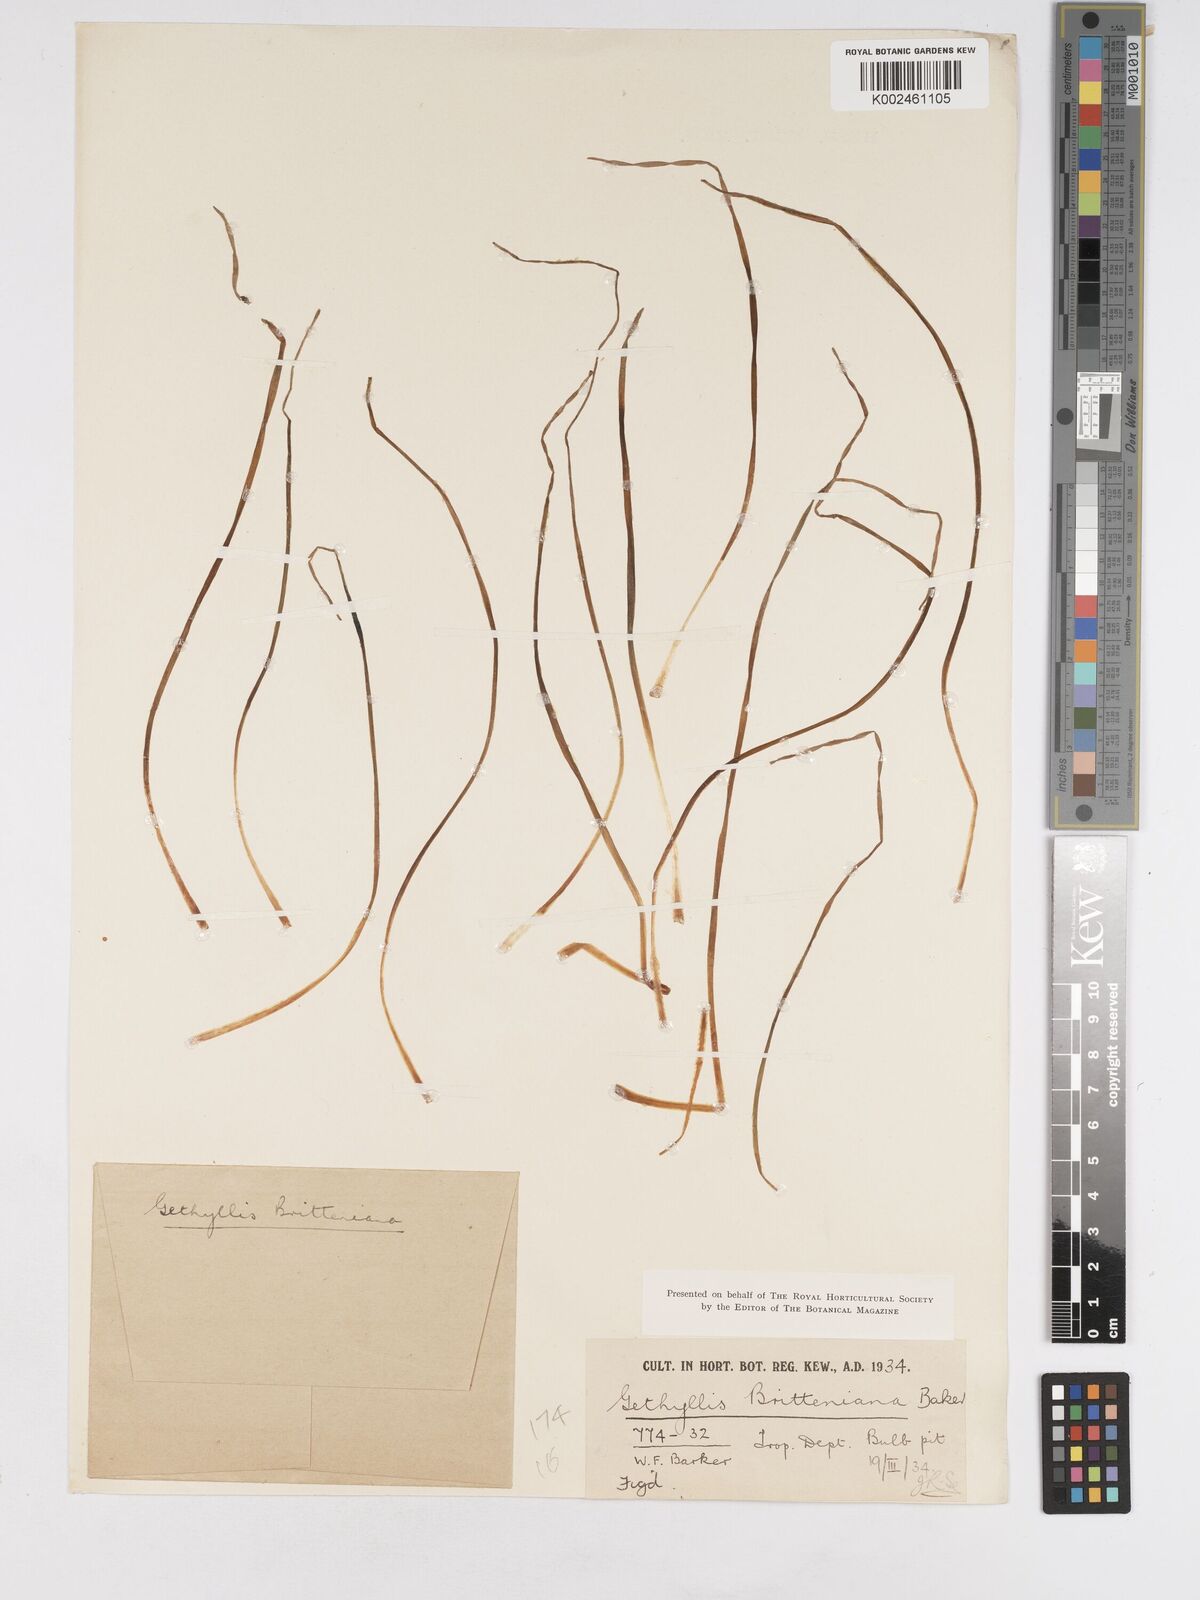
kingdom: Plantae
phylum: Tracheophyta
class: Liliopsida
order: Asparagales
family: Amaryllidaceae
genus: Gethyllis
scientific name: Gethyllis britteniana
